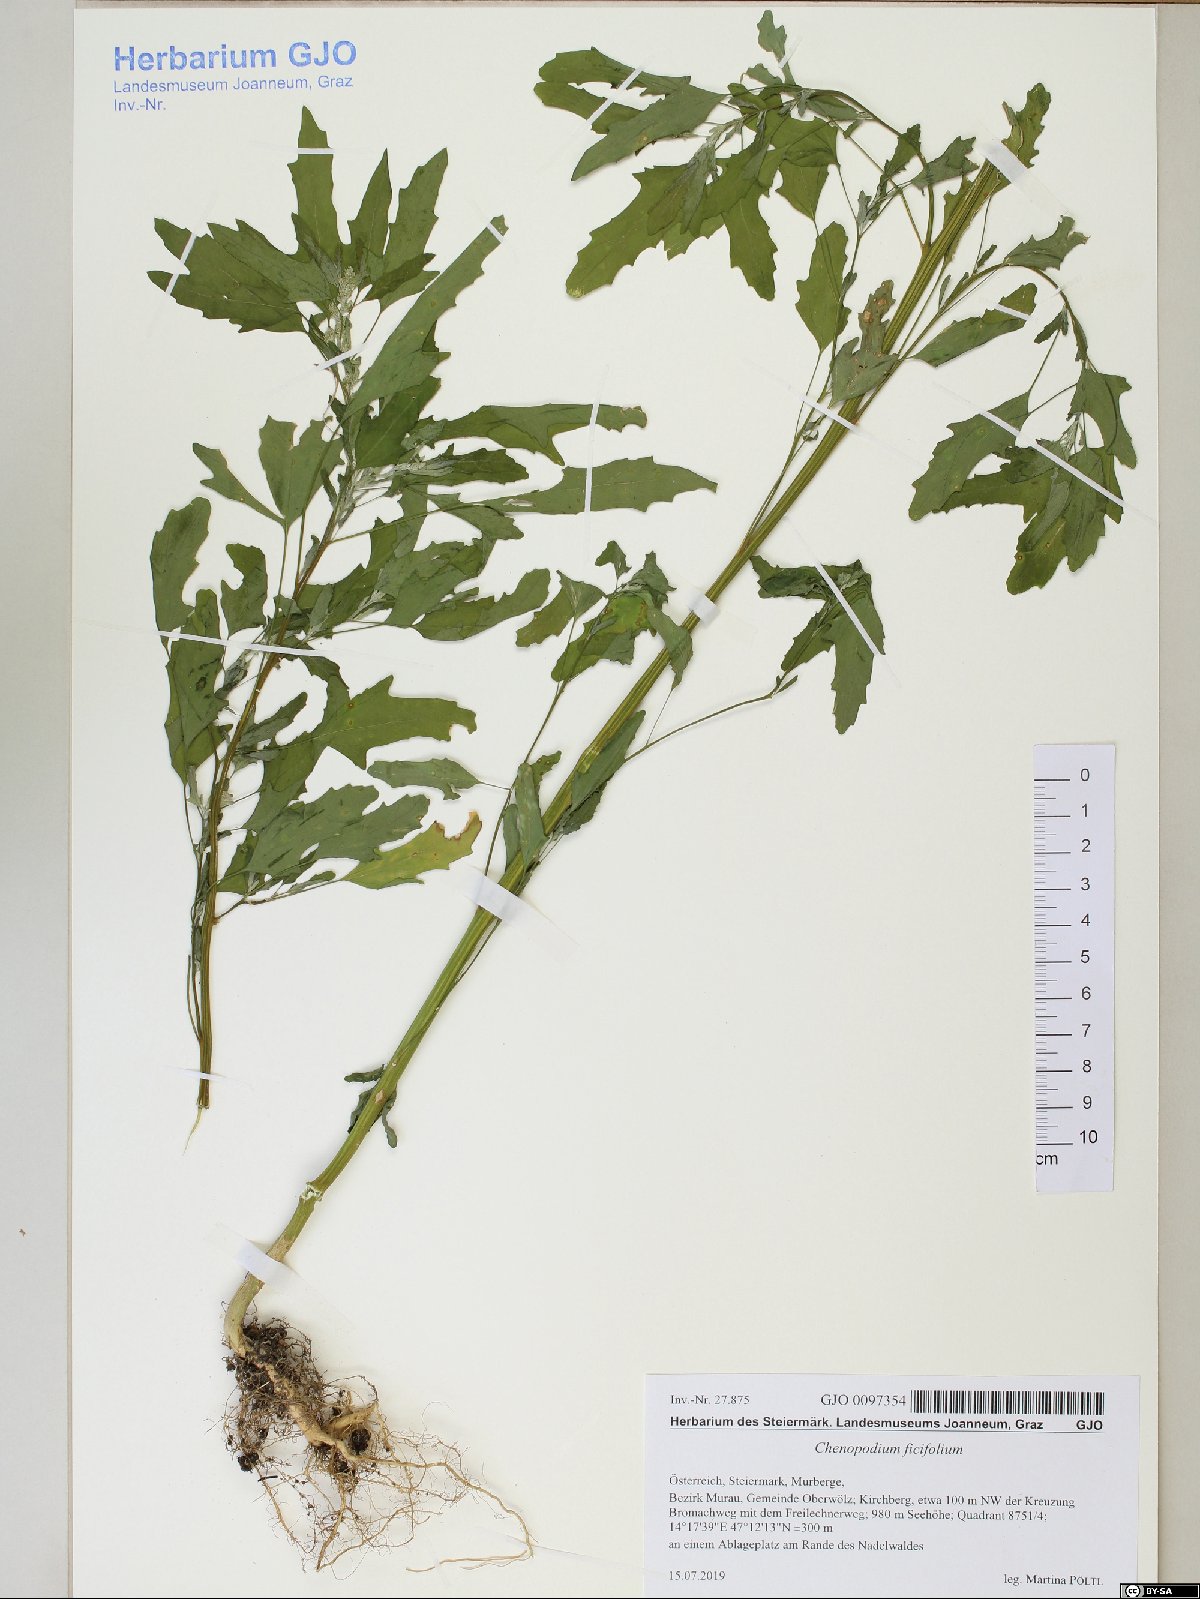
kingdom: Plantae
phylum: Tracheophyta
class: Magnoliopsida
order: Caryophyllales
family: Amaranthaceae
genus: Chenopodium
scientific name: Chenopodium ficifolium
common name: Fig-leaved goosefoot
